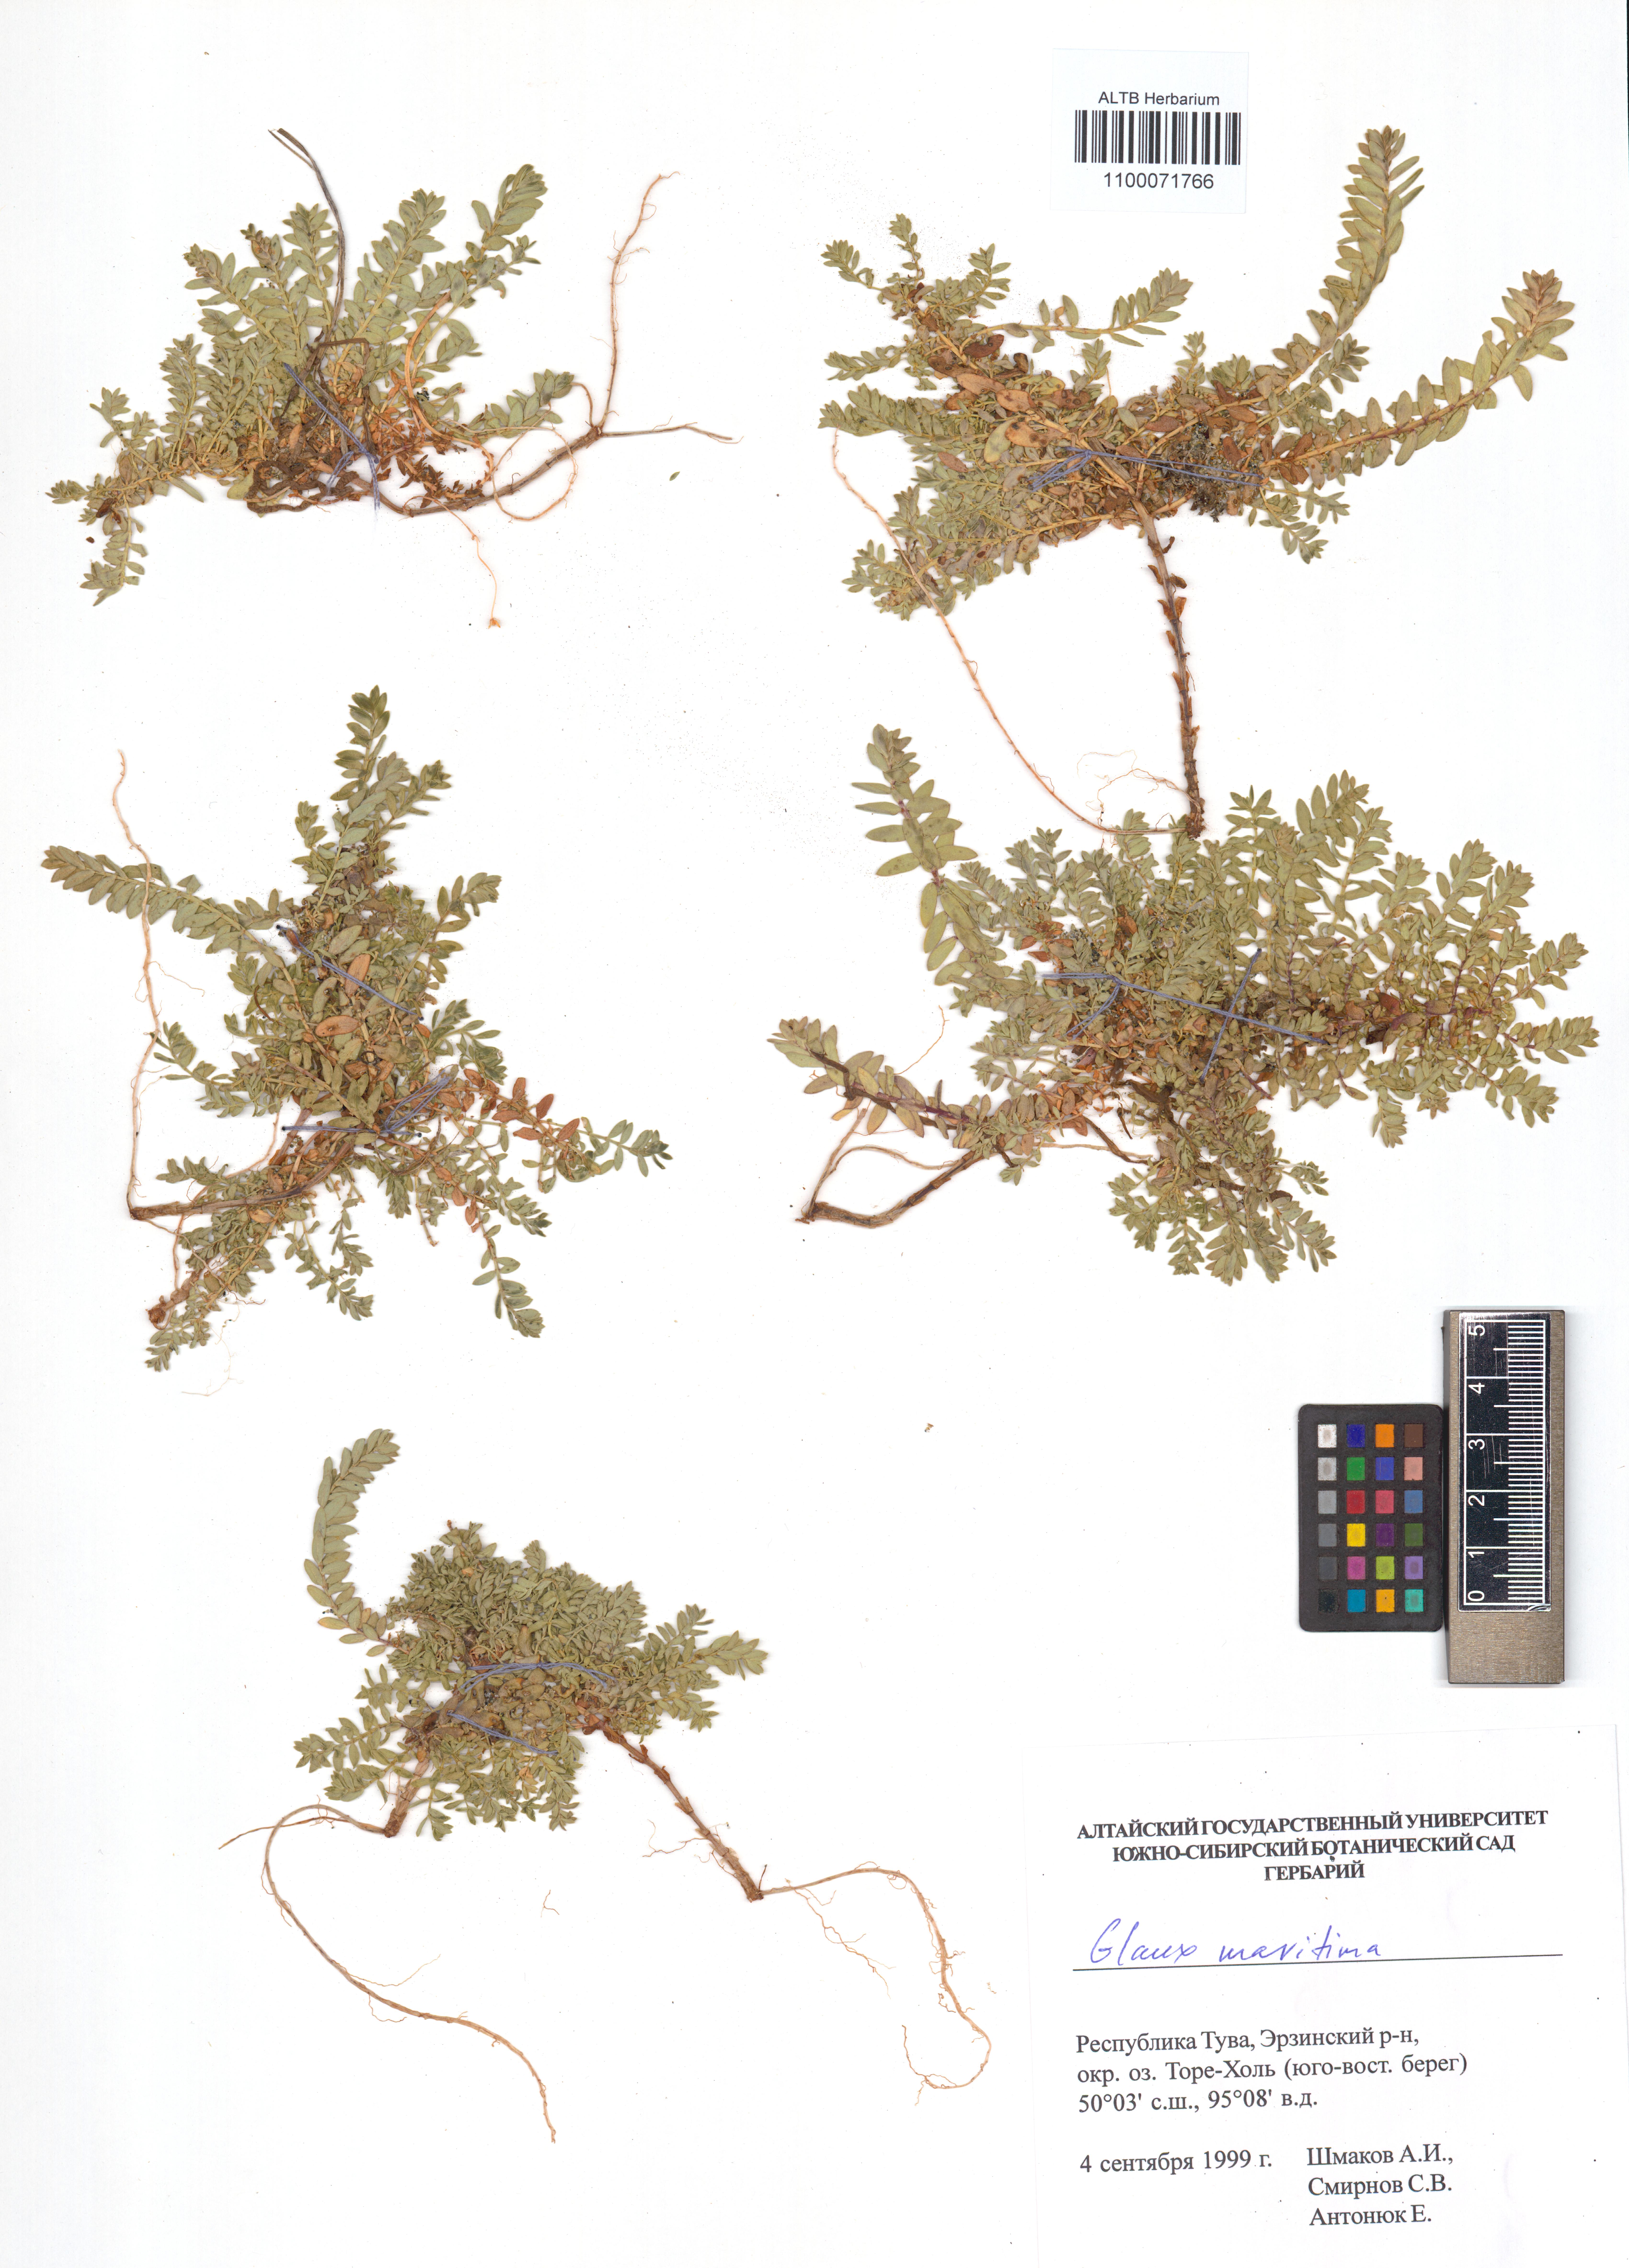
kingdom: Plantae
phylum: Tracheophyta
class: Magnoliopsida
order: Ericales
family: Primulaceae
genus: Lysimachia
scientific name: Lysimachia maritima
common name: Sea milkwort
